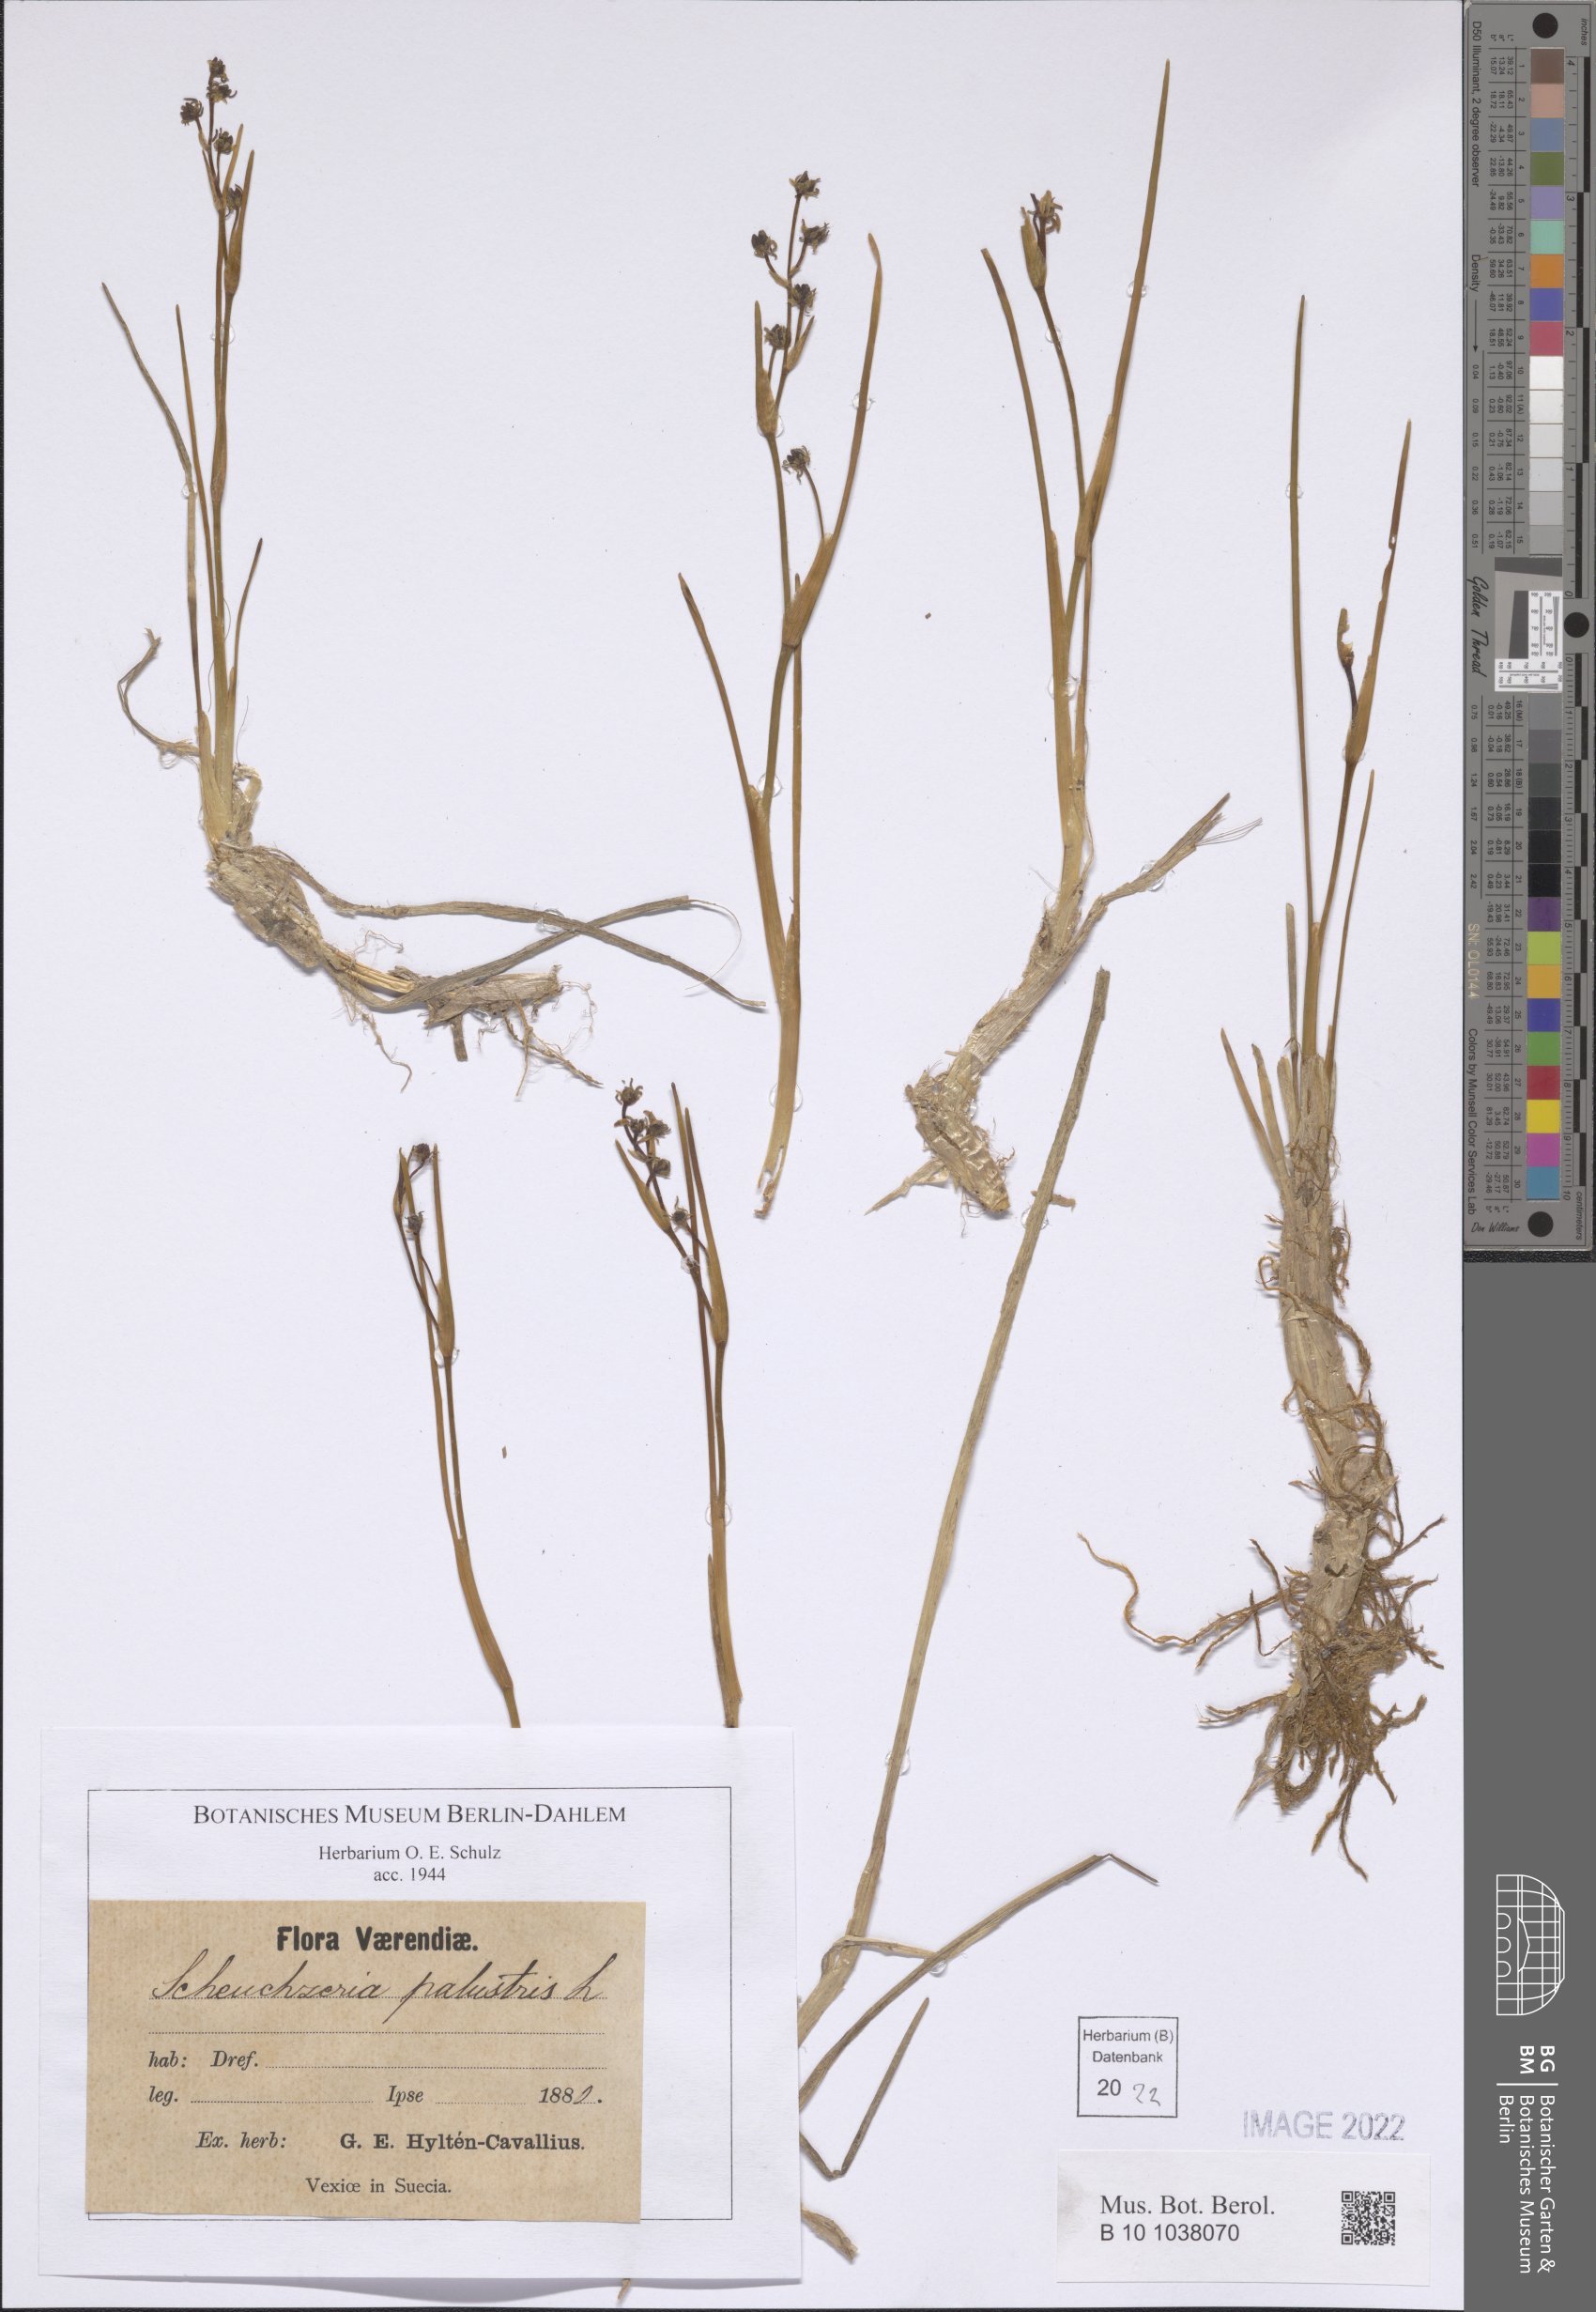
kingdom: Plantae
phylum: Tracheophyta
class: Liliopsida
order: Alismatales
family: Scheuchzeriaceae
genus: Scheuchzeria
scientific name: Scheuchzeria palustris
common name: Rannoch-rush
